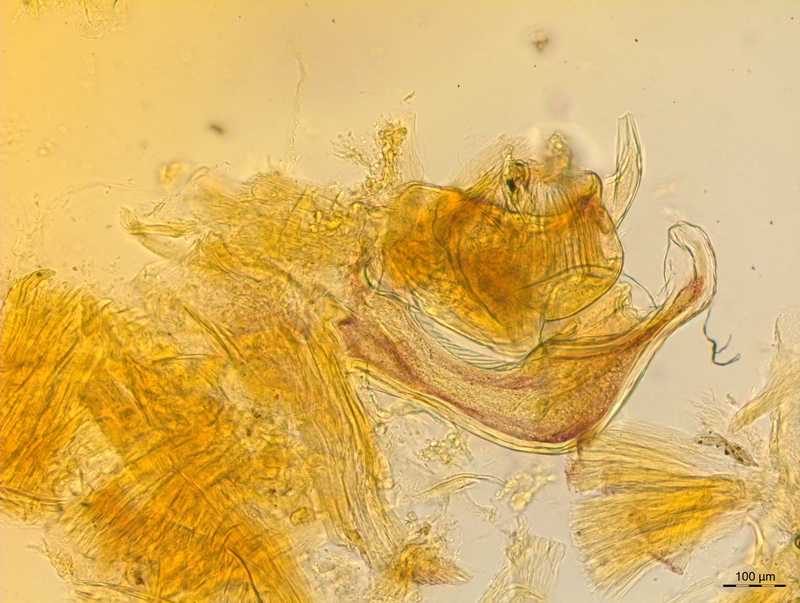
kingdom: Animalia
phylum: Arthropoda
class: Diplopoda
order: Chordeumatida
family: Craspedosomatidae
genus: Craspedosoma
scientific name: Craspedosoma slavum
